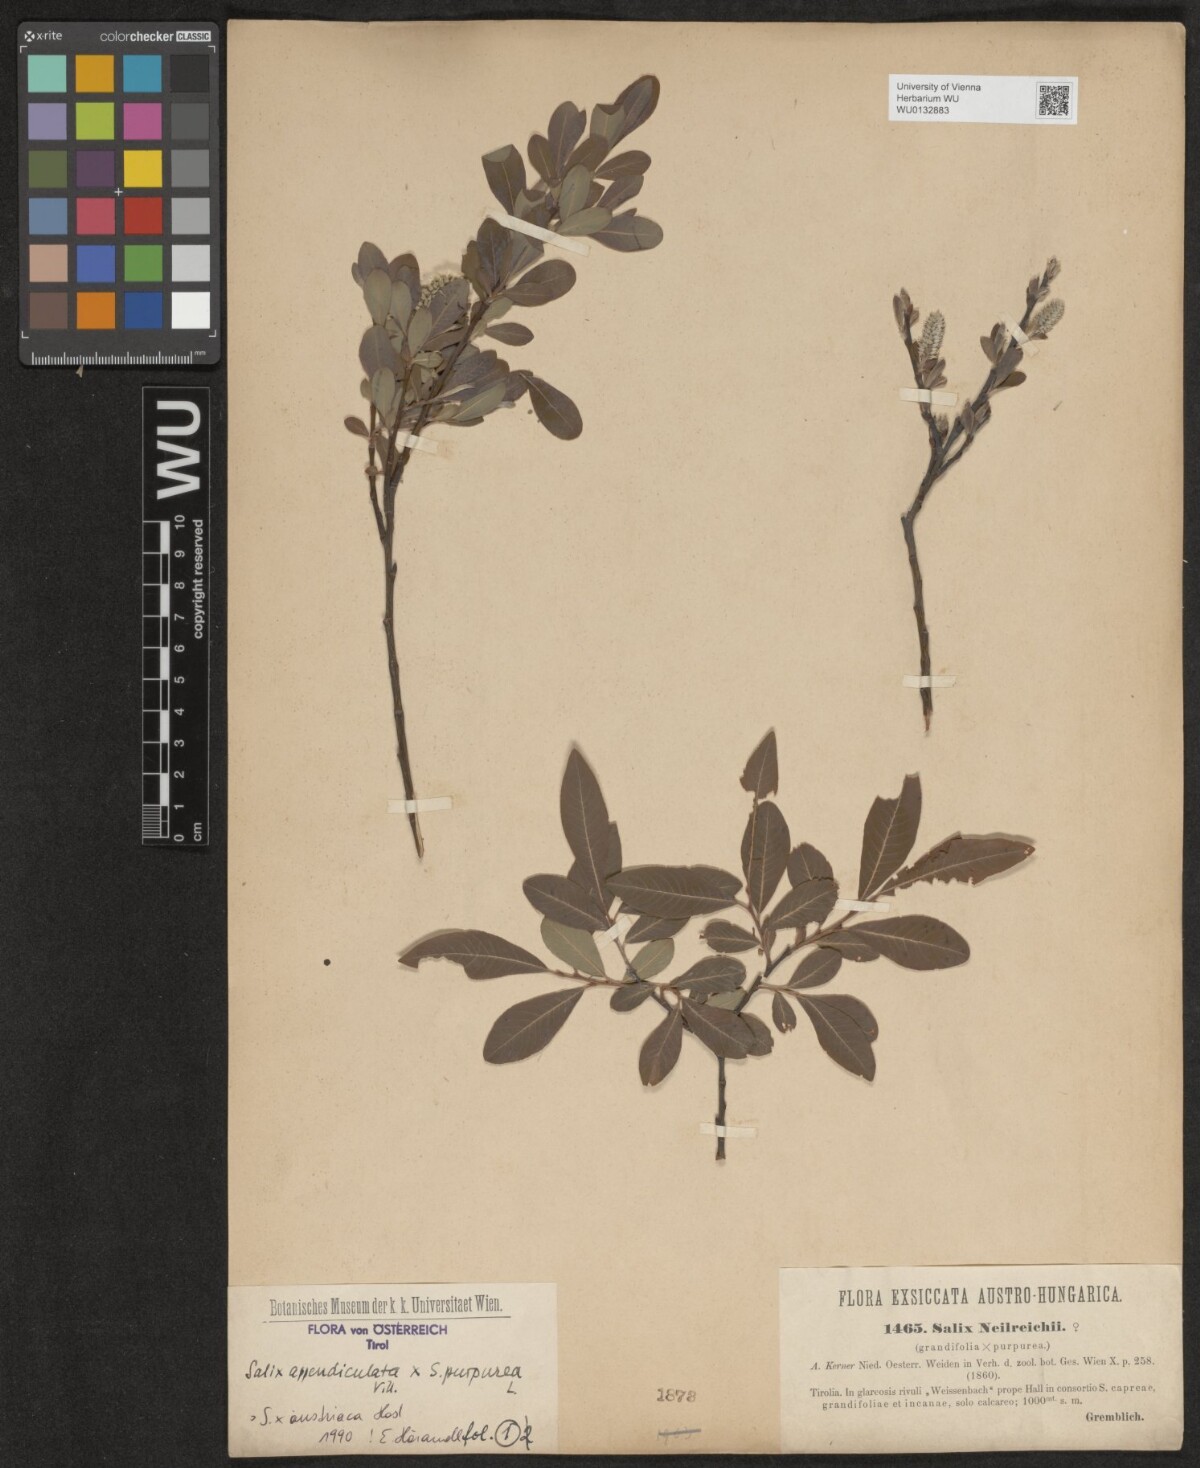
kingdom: Plantae
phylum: Tracheophyta
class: Magnoliopsida
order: Malpighiales
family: Salicaceae
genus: Salix
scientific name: Salix austriaca
